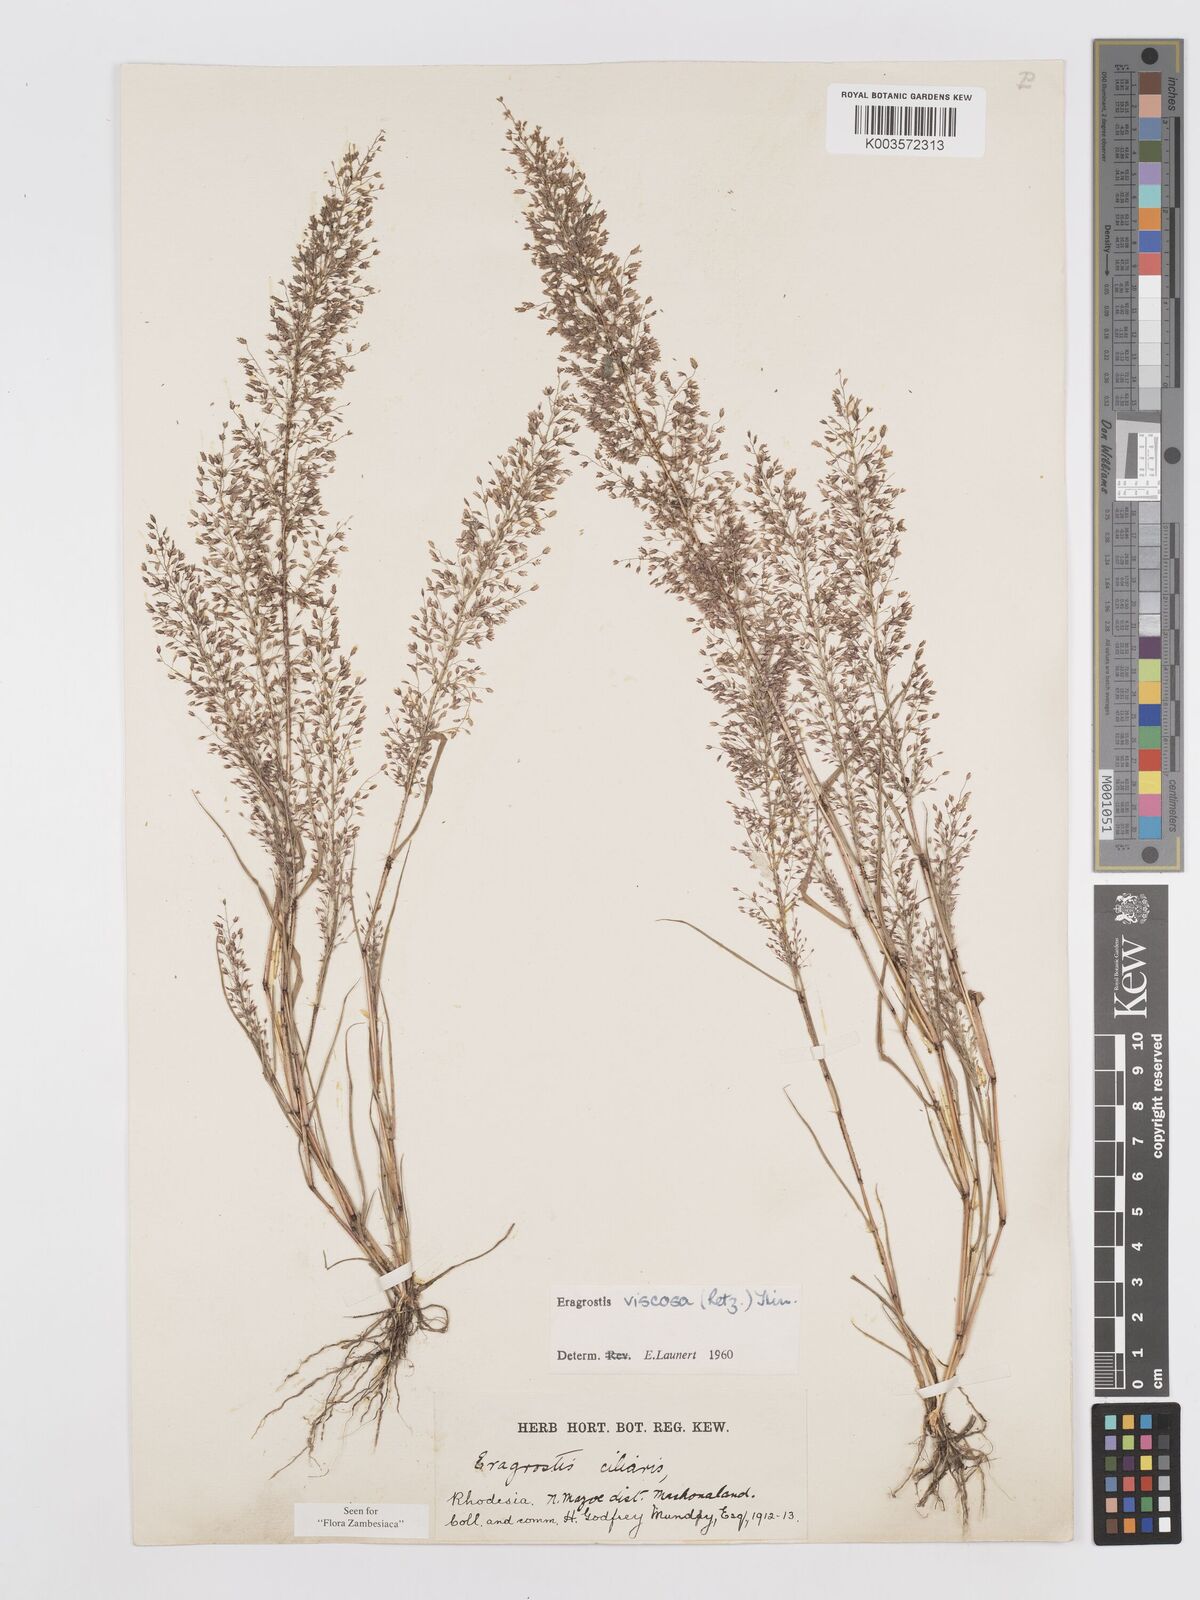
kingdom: Plantae
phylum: Tracheophyta
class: Liliopsida
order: Poales
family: Poaceae
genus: Eragrostis
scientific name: Eragrostis
